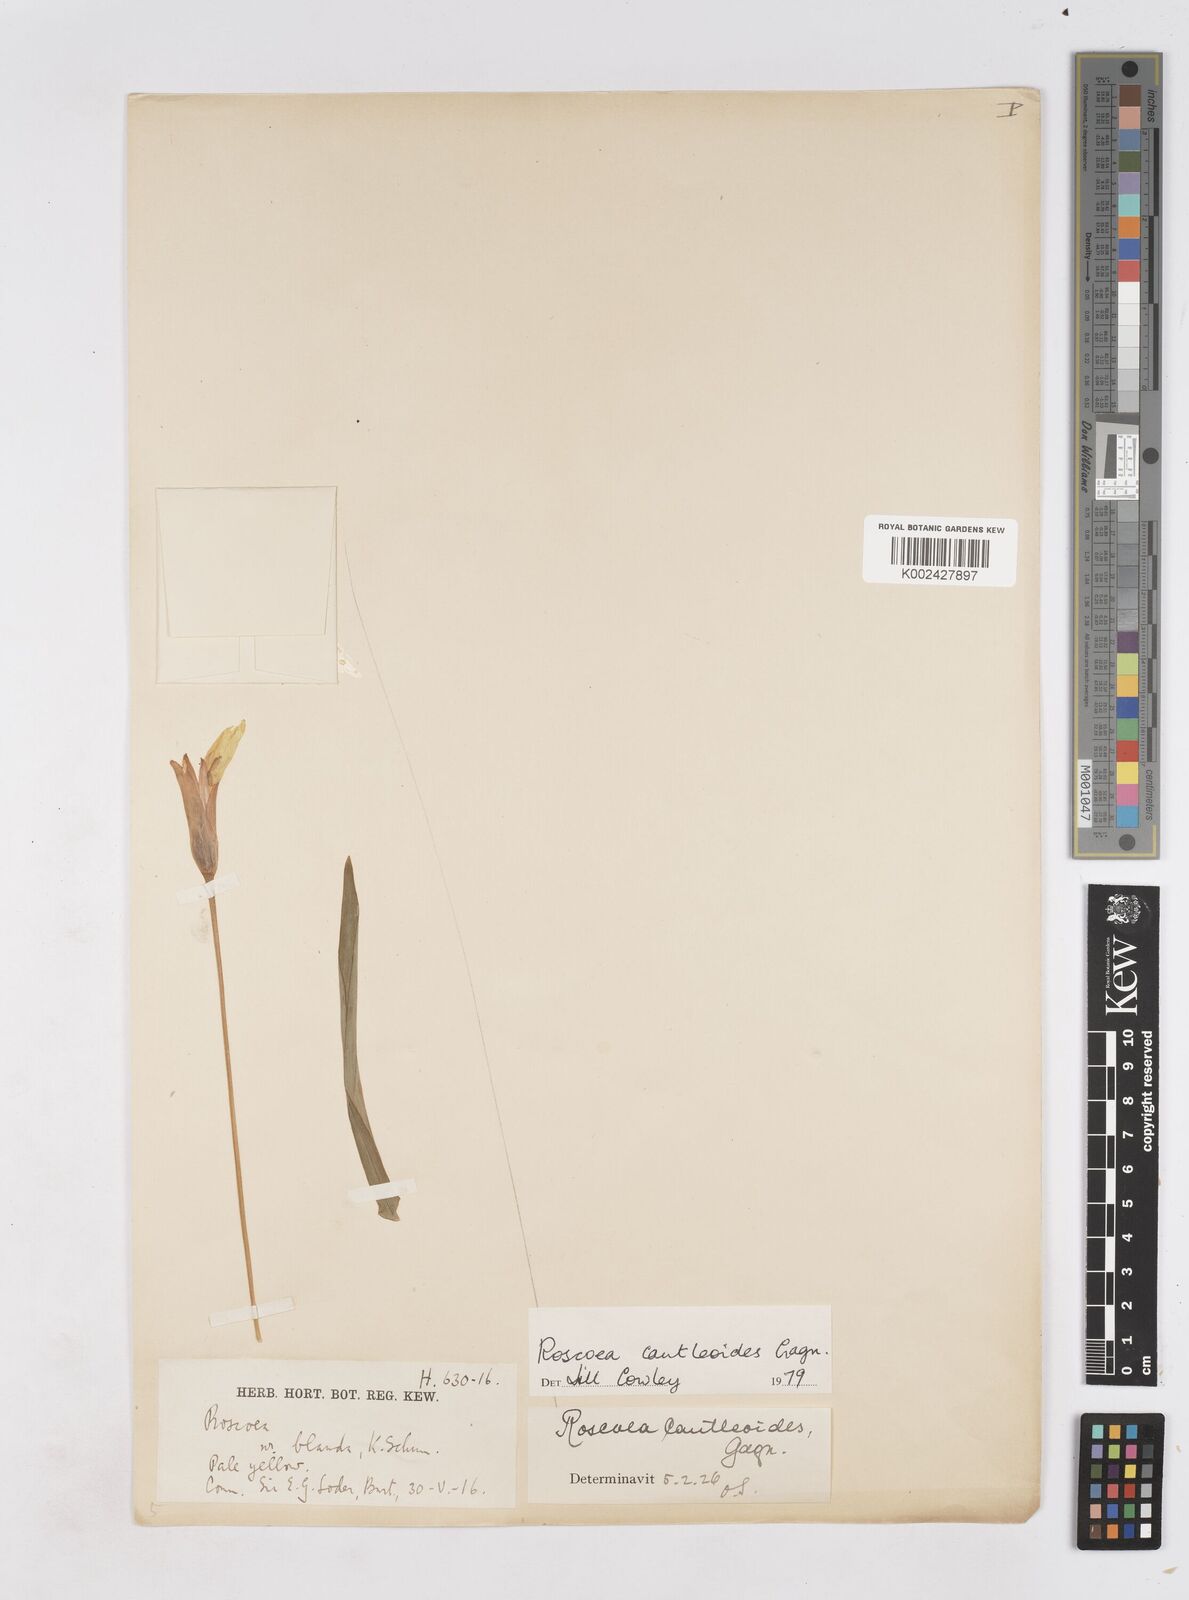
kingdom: Plantae
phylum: Tracheophyta
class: Liliopsida
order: Zingiberales
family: Zingiberaceae
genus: Roscoea
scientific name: Roscoea cautleyoides
